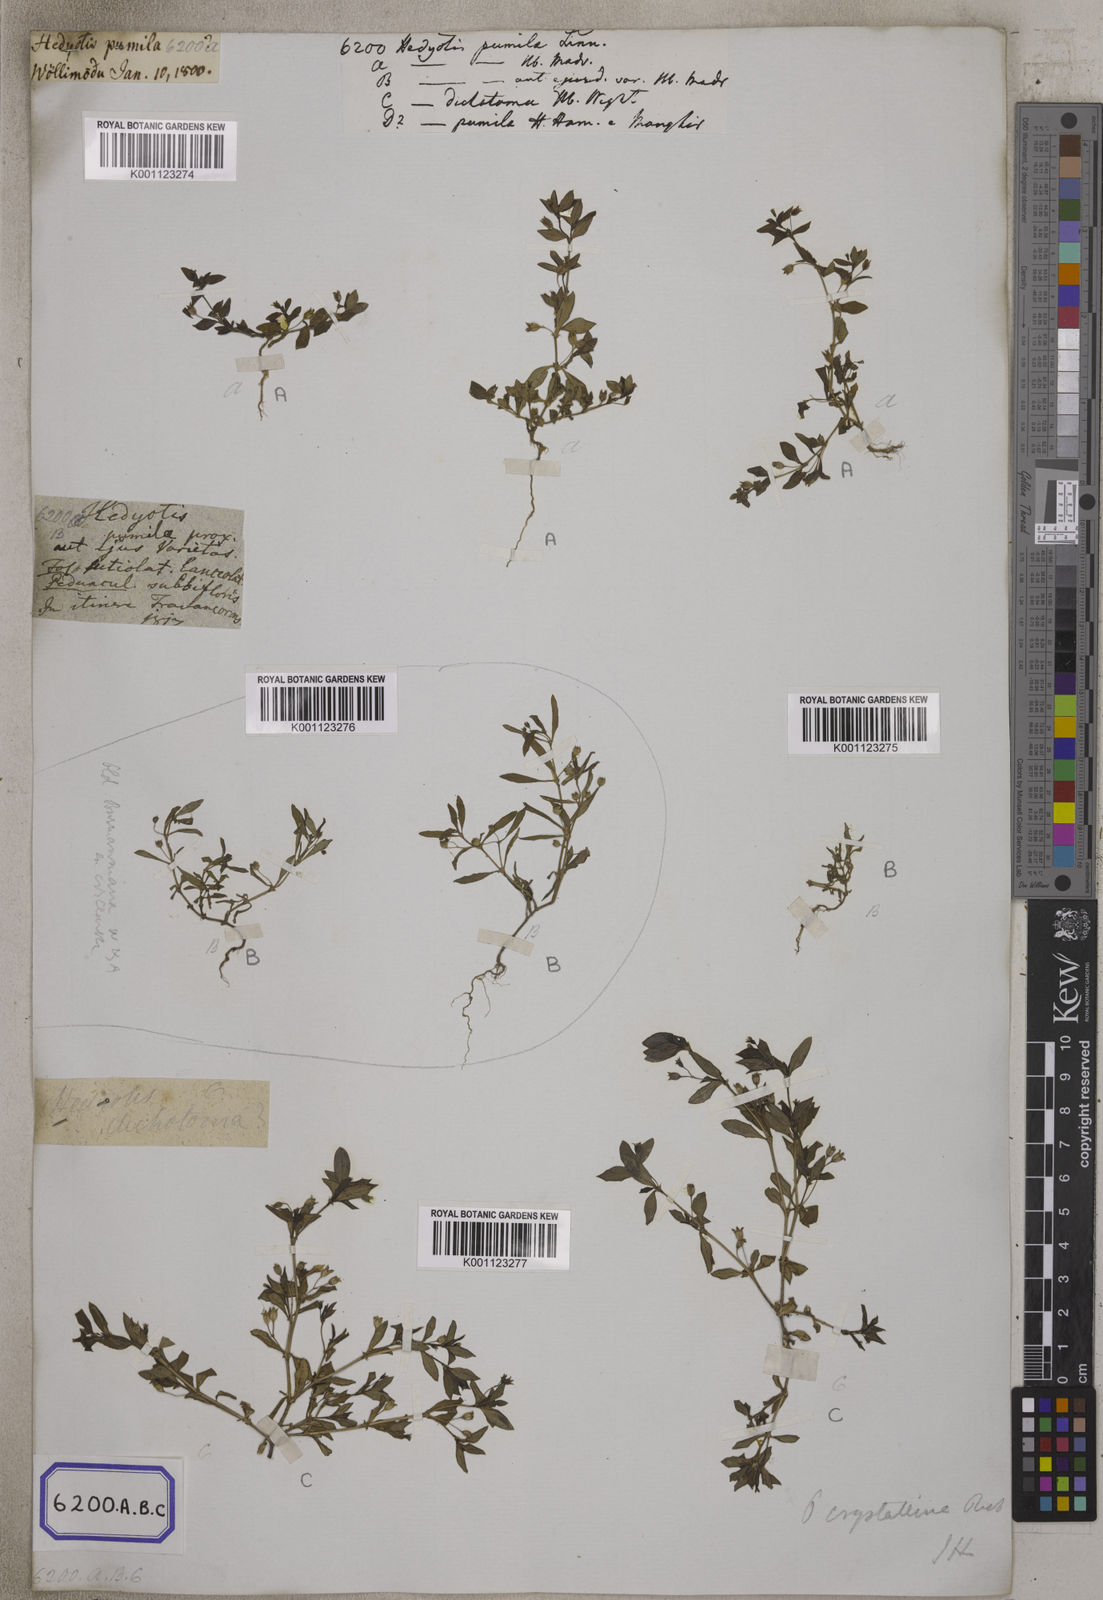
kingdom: Plantae
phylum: Tracheophyta
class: Magnoliopsida
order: Gentianales
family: Rubiaceae
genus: Oldenlandia
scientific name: Oldenlandia pumila
